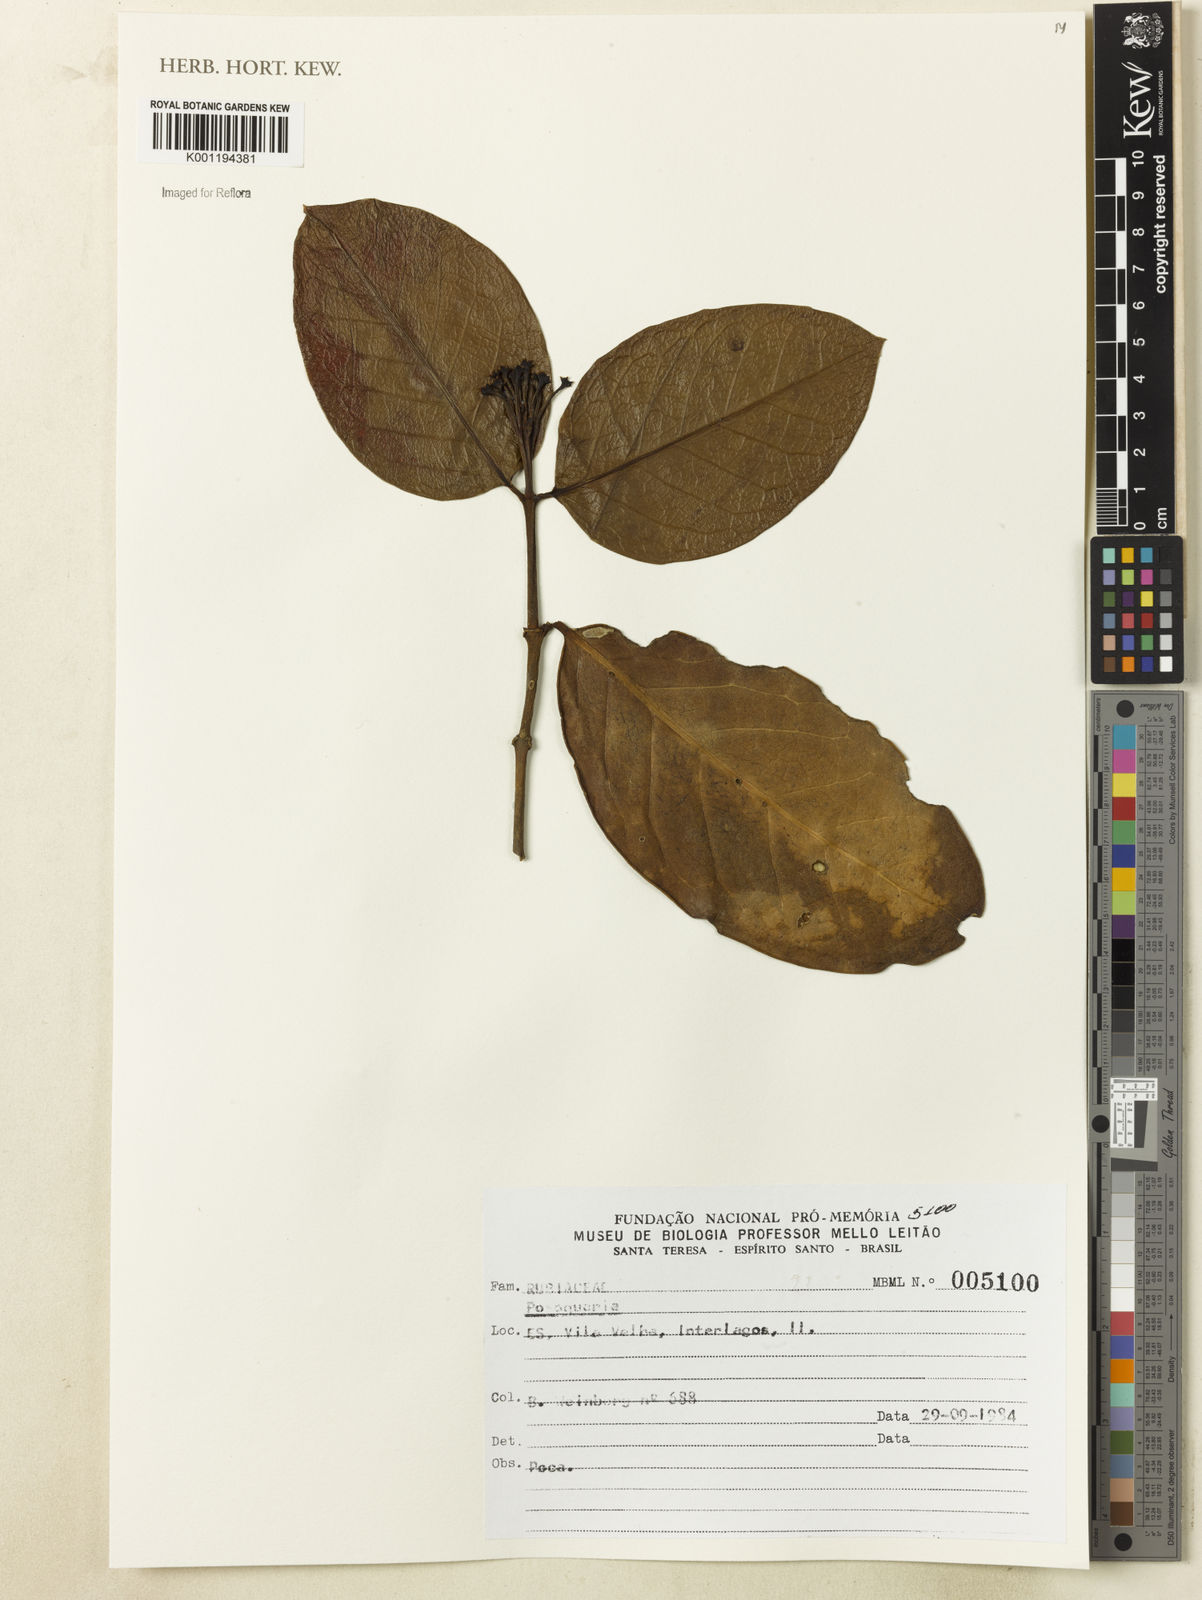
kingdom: Plantae
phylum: Tracheophyta
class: Magnoliopsida
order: Gentianales
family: Rubiaceae
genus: Posoqueria
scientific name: Posoqueria
